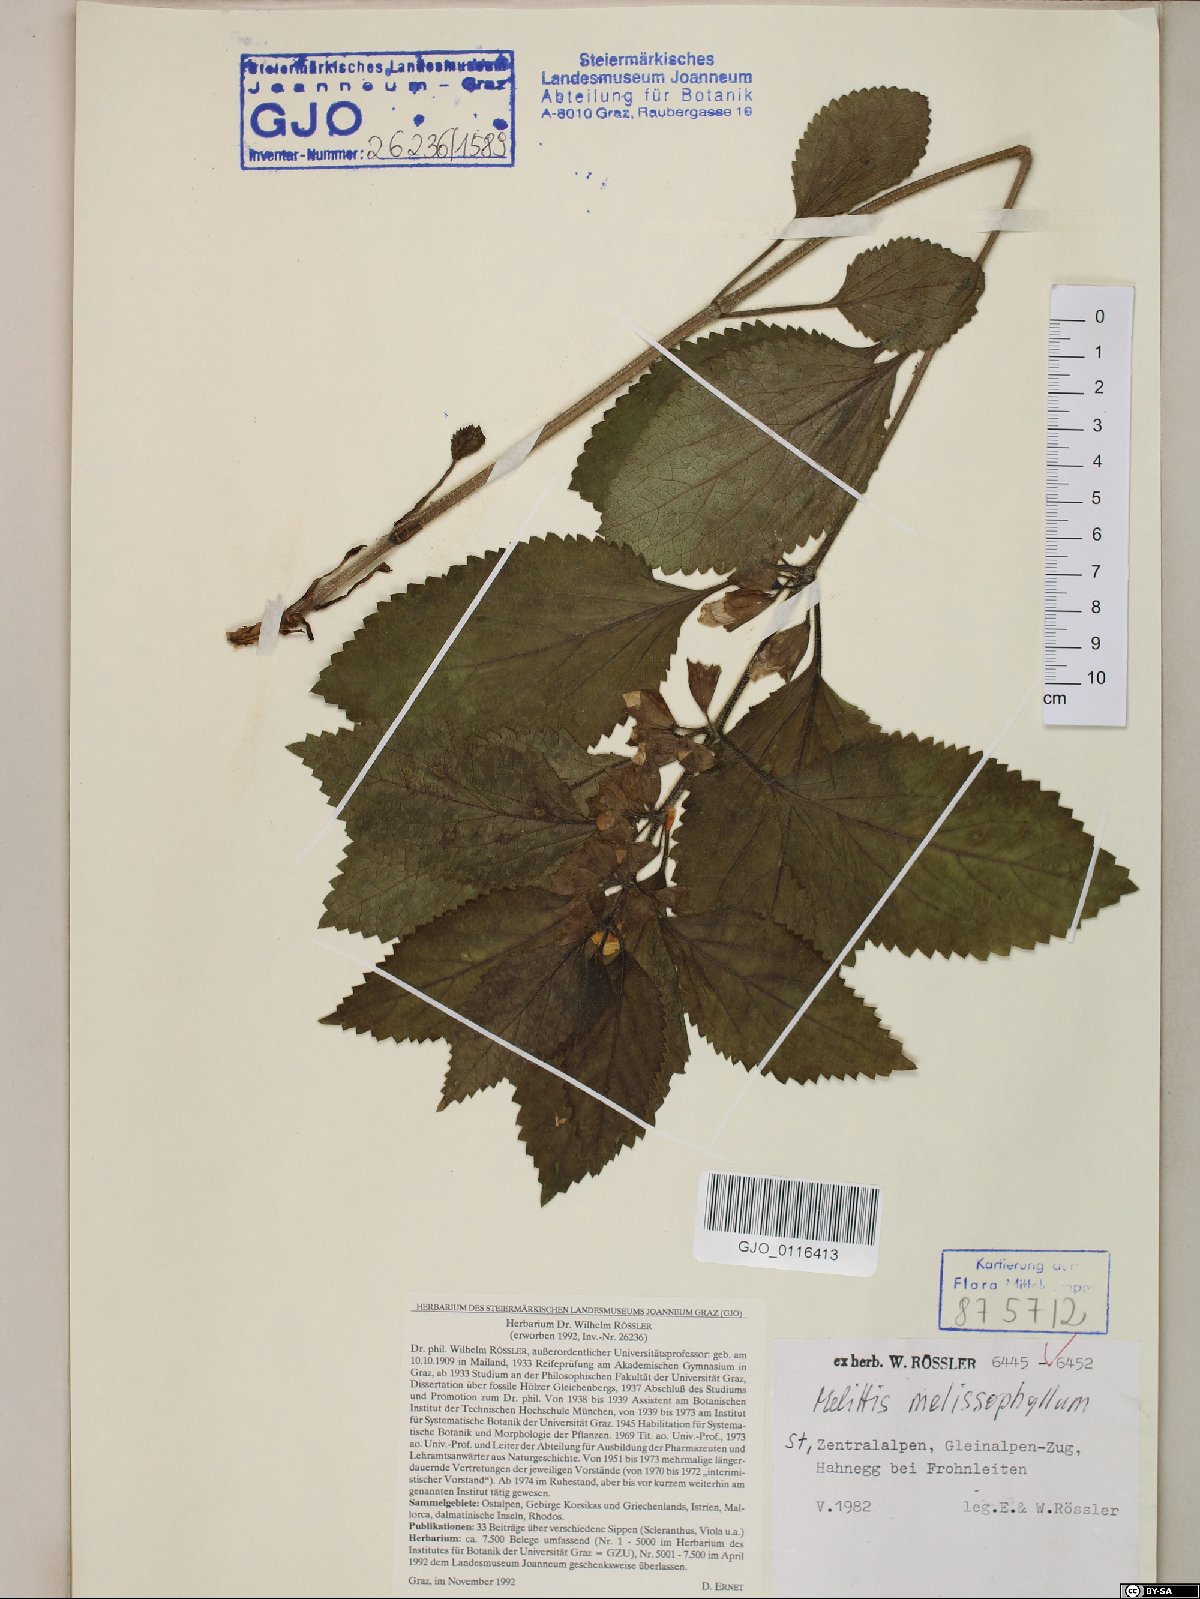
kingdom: Plantae
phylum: Tracheophyta
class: Magnoliopsida
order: Lamiales
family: Lamiaceae
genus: Melittis
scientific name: Melittis melissophyllum
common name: Bastard balm
